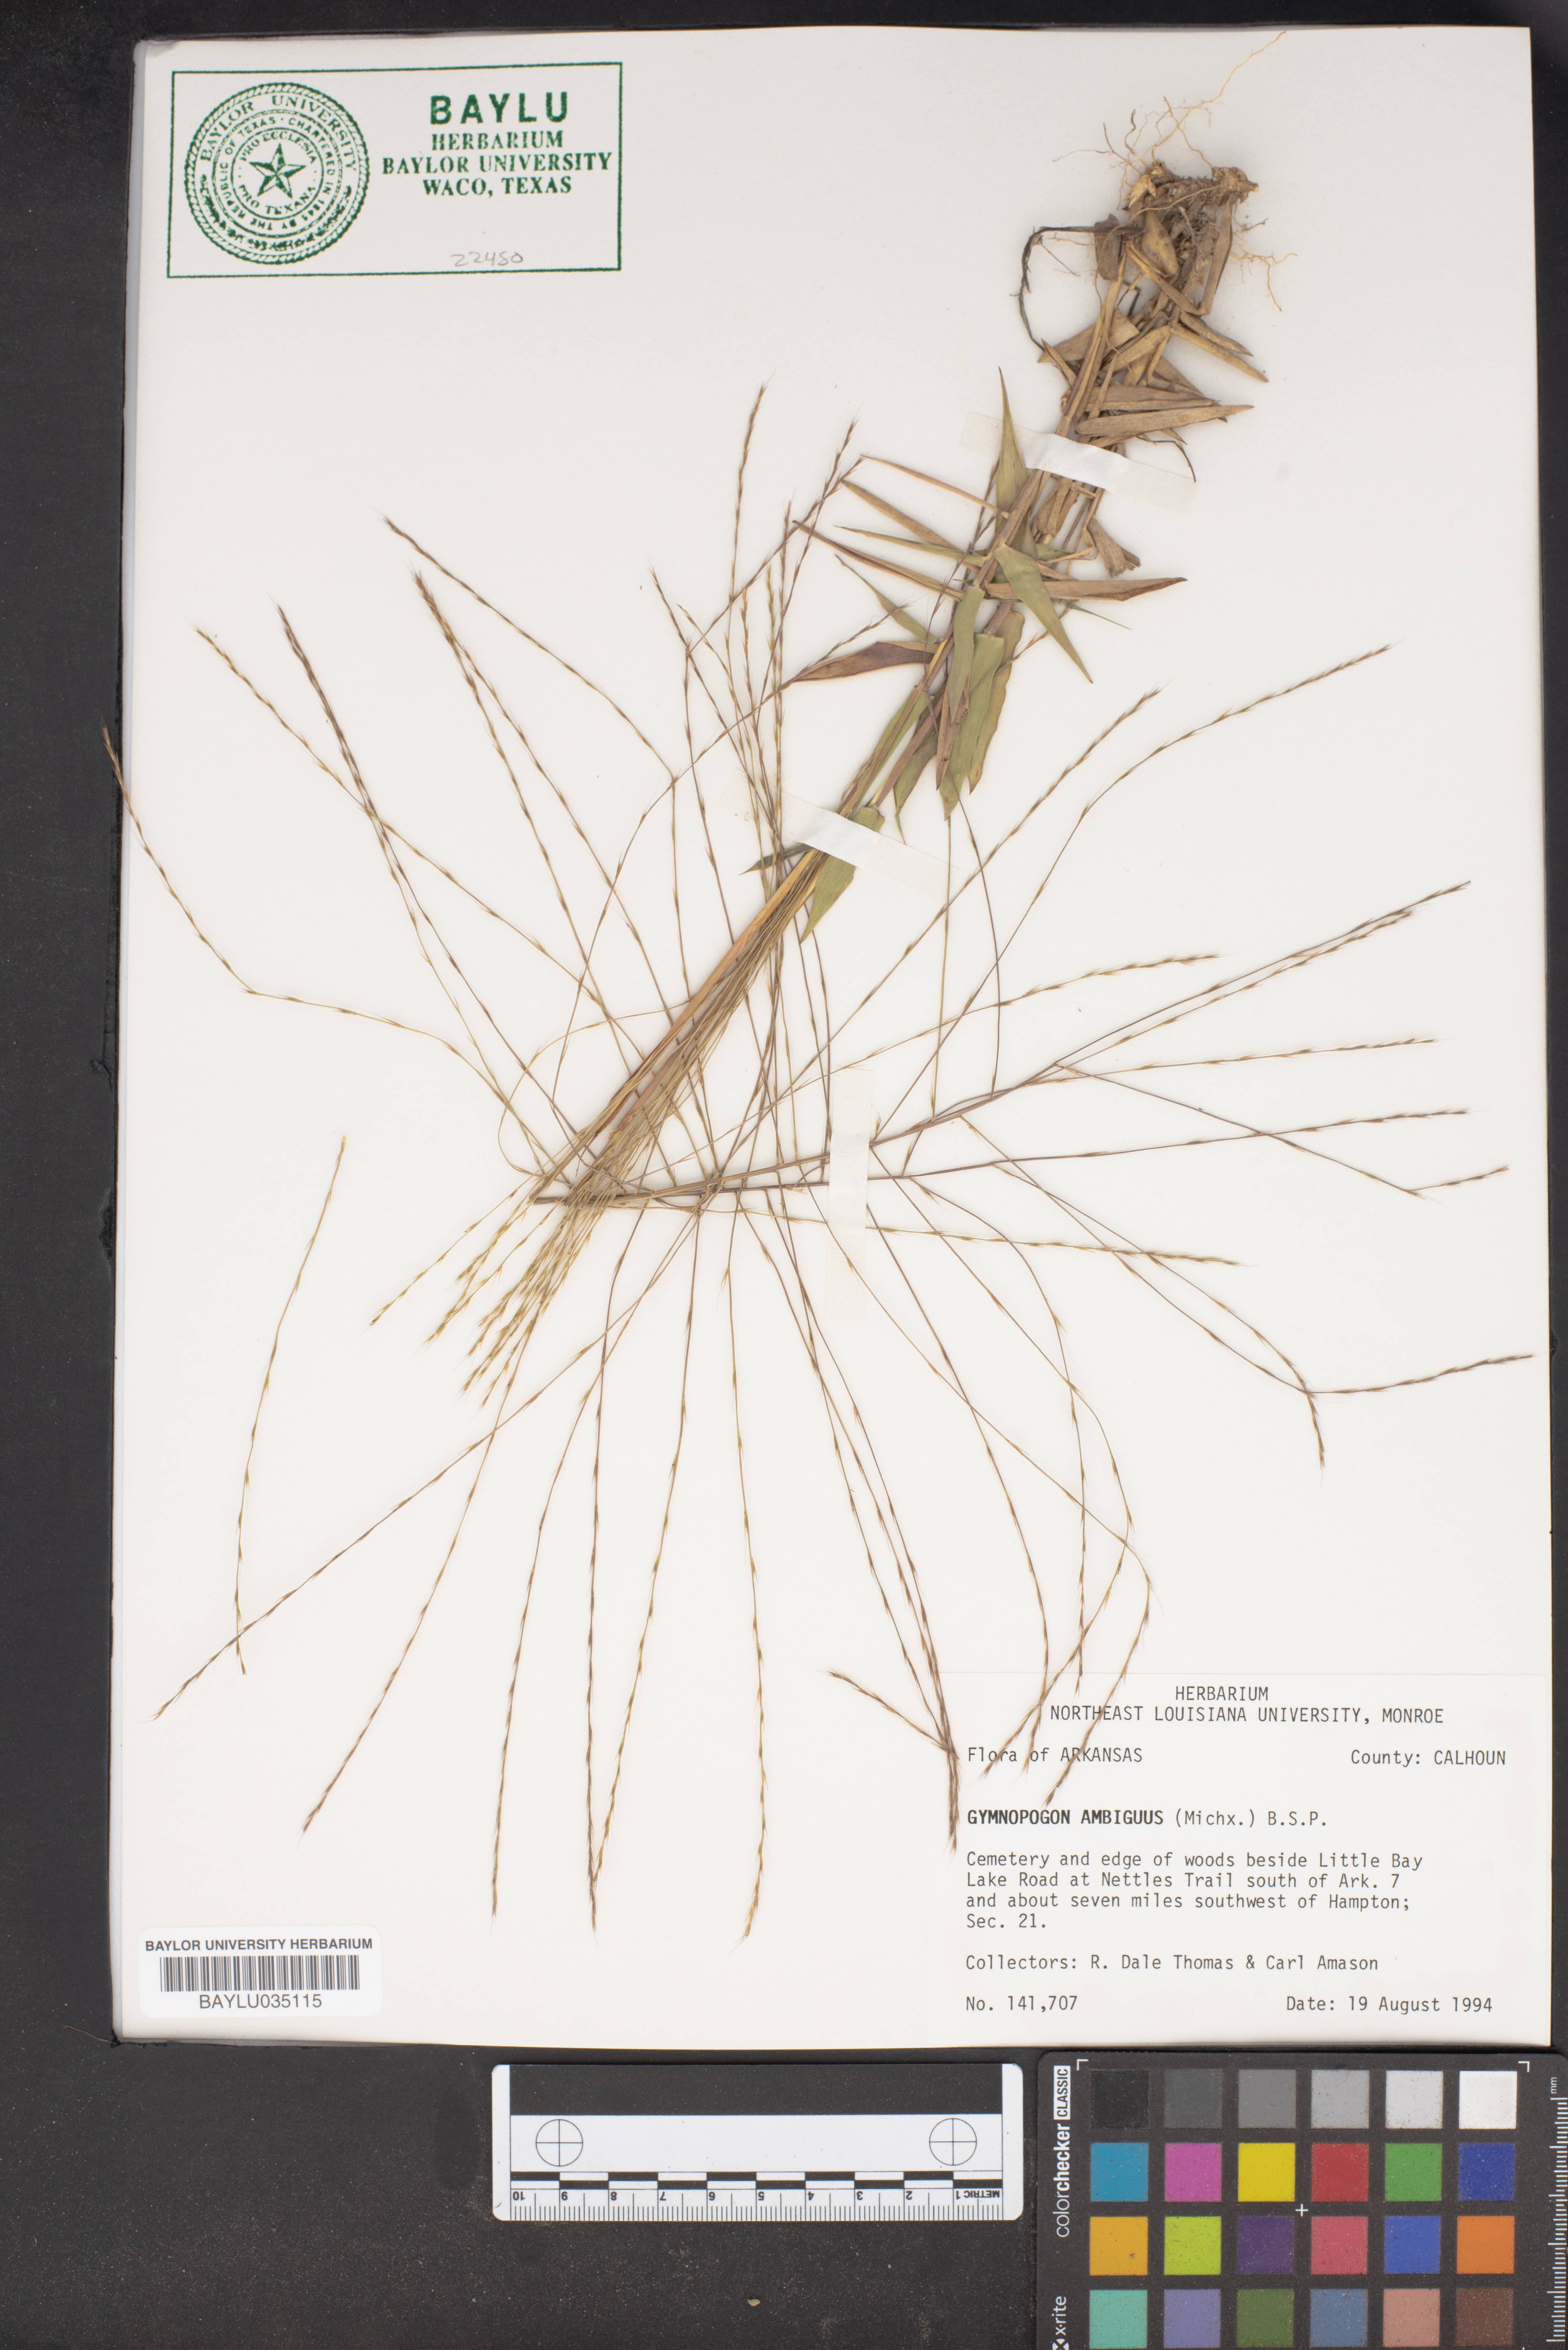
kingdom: Plantae
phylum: Tracheophyta
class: Liliopsida
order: Poales
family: Poaceae
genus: Gymnopogon
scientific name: Gymnopogon ambiguus
